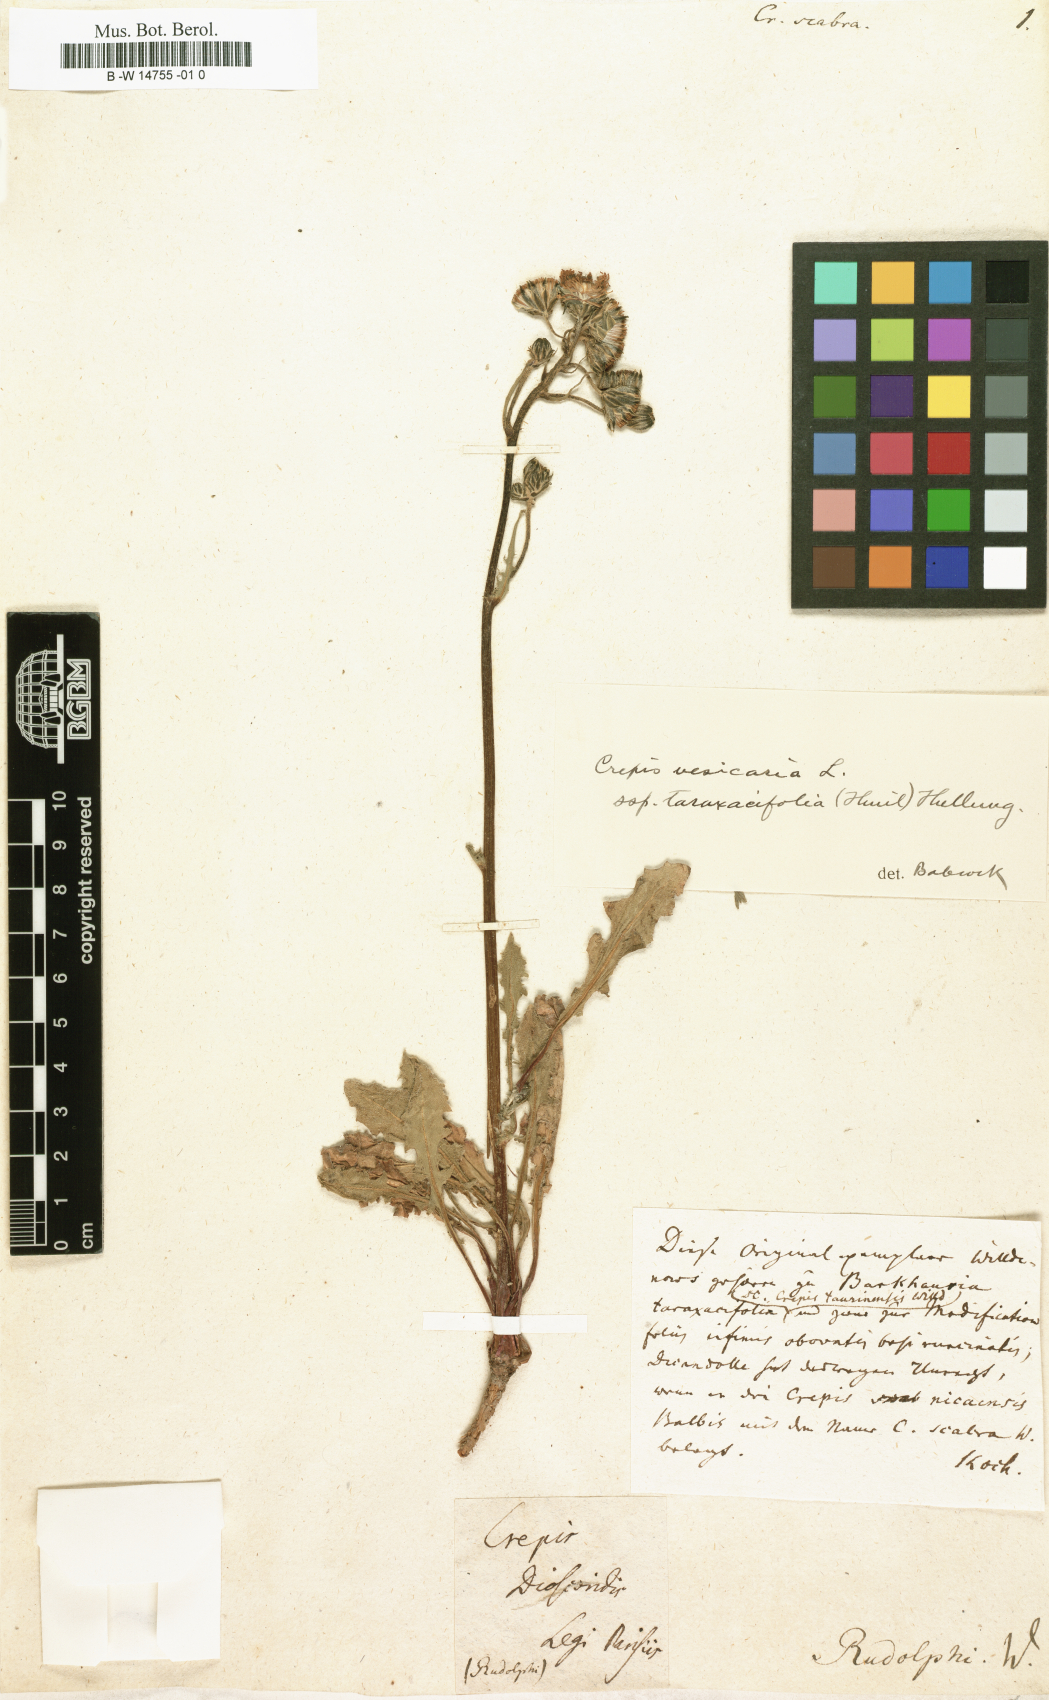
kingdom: Plantae
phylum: Tracheophyta
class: Magnoliopsida
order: Asterales
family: Asteraceae
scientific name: Asteraceae
